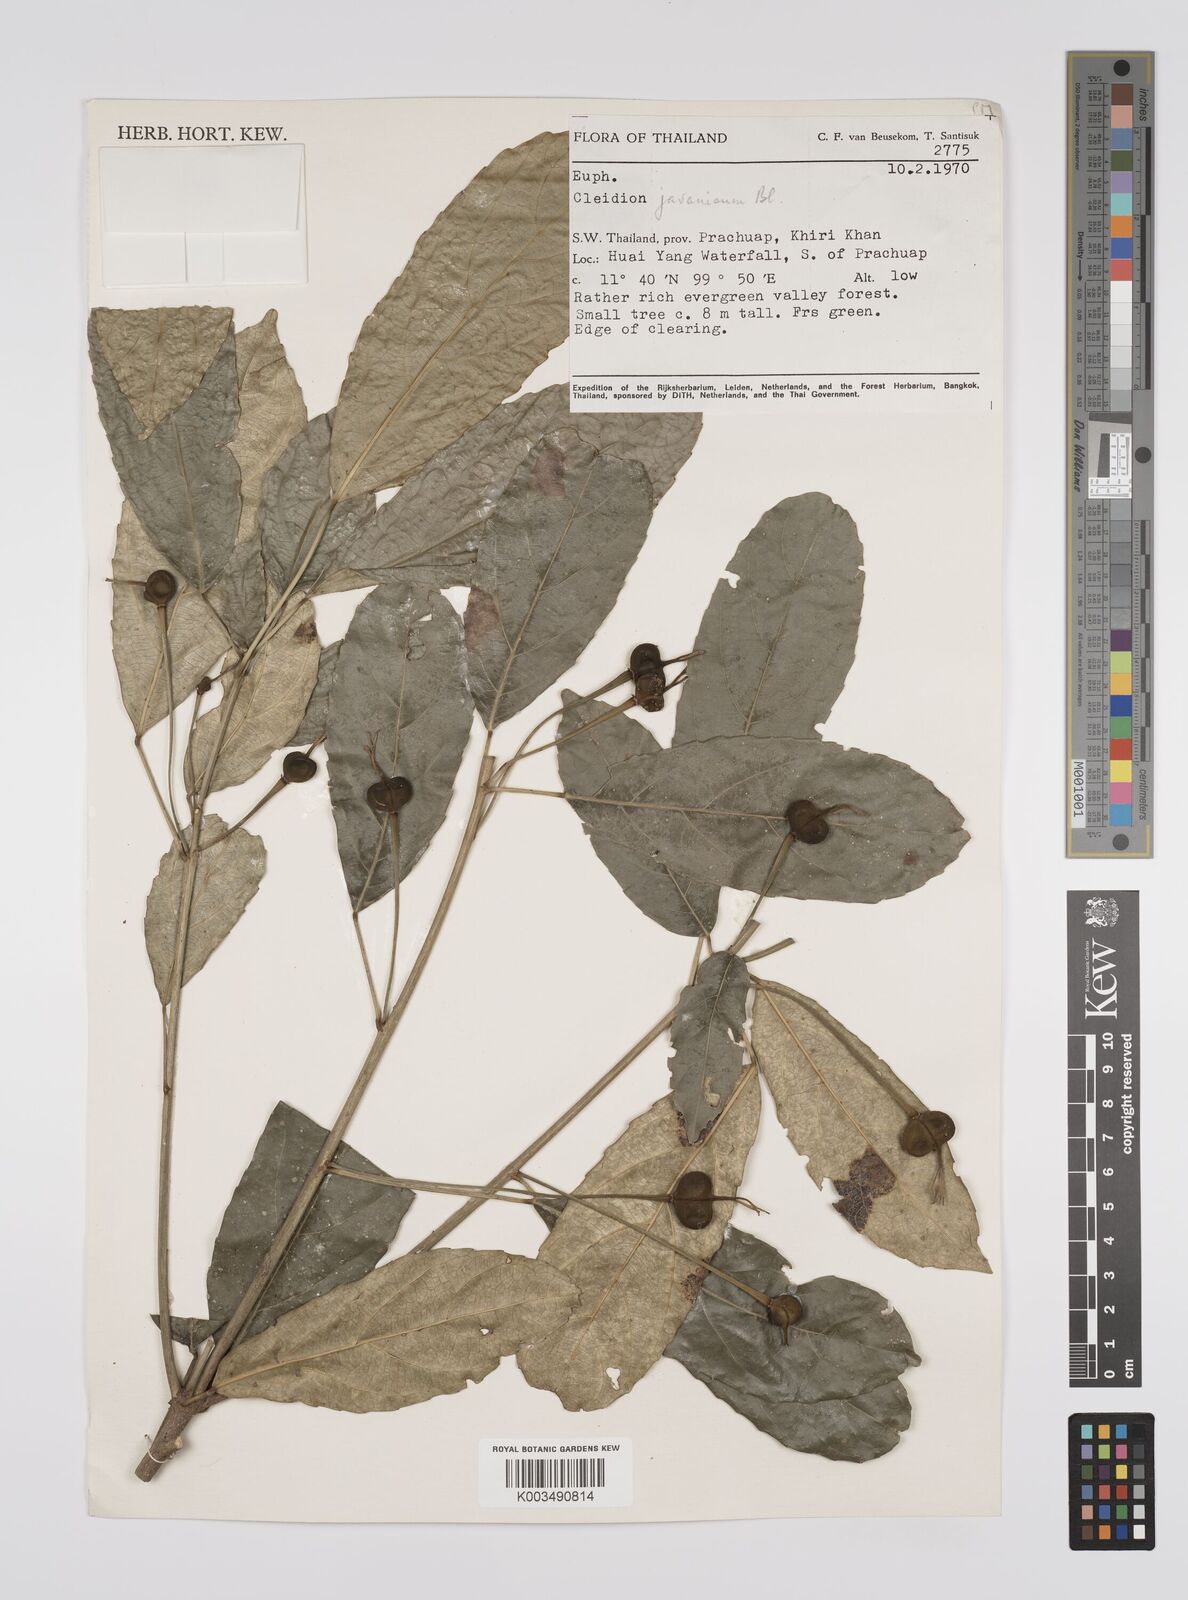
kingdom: Plantae
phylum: Tracheophyta
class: Magnoliopsida
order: Malpighiales
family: Euphorbiaceae
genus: Acalypha
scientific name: Acalypha spiciflora
